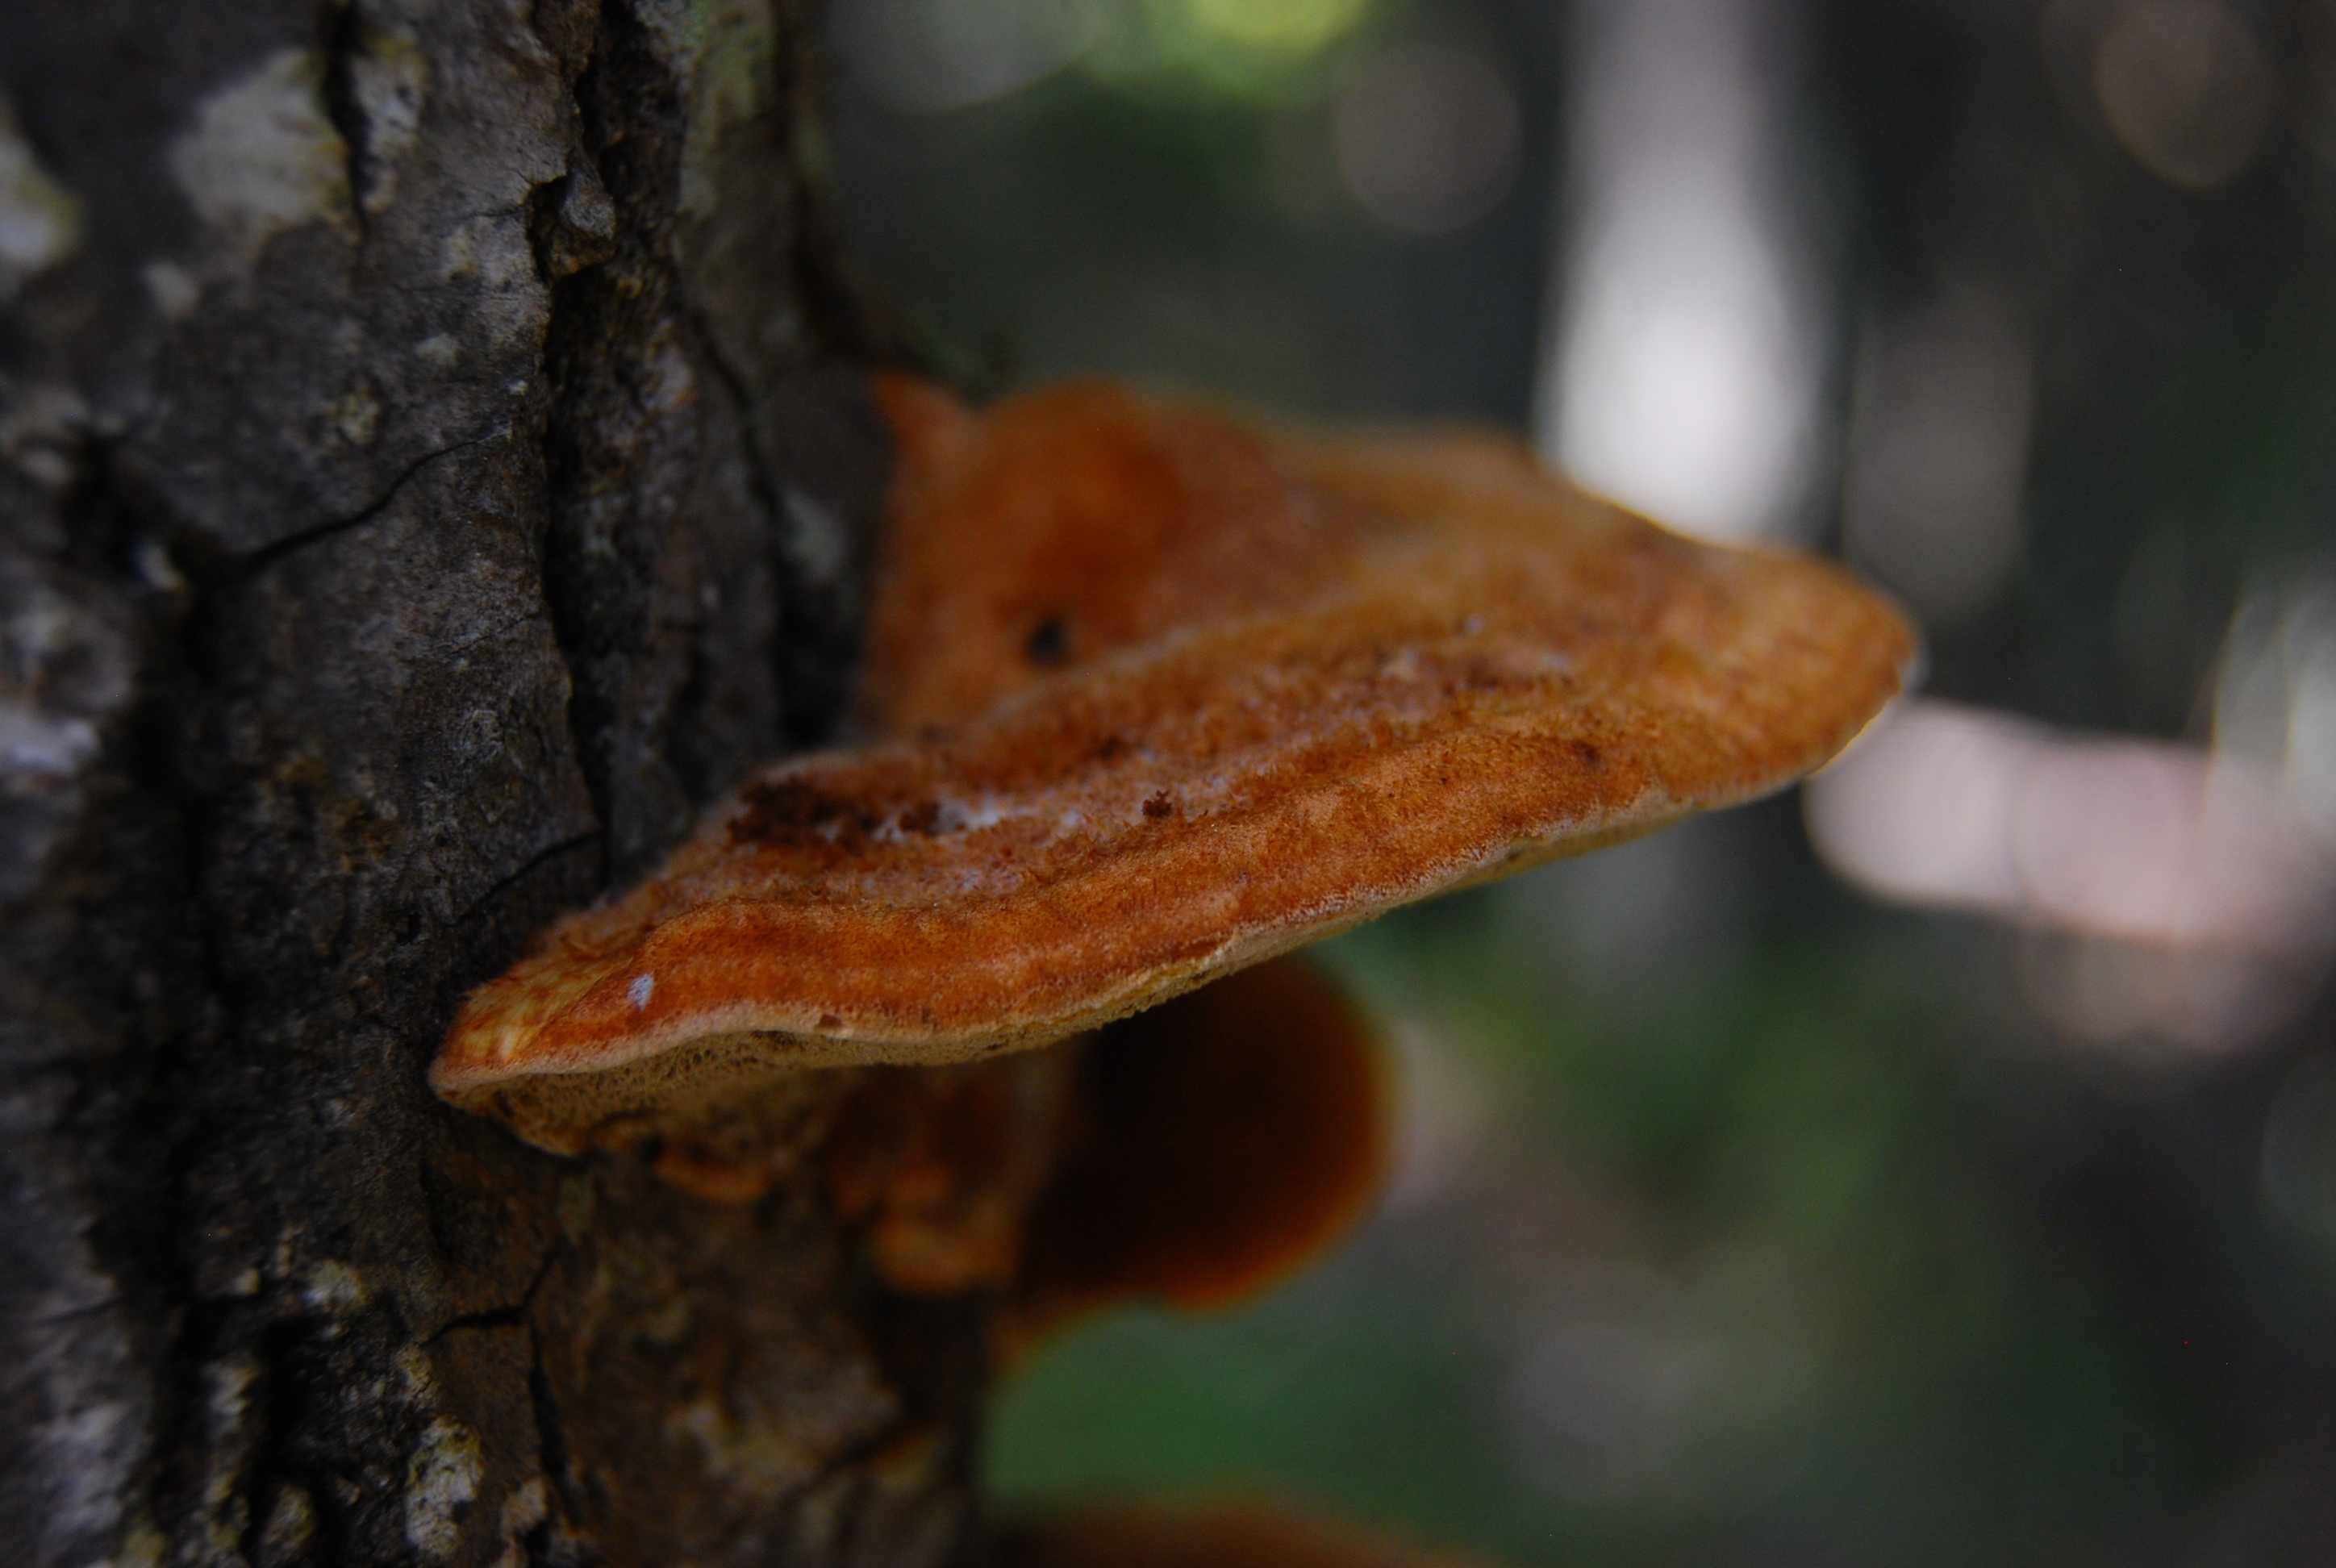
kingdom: Fungi
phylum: Basidiomycota
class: Agaricomycetes
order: Hymenochaetales
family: Hymenochaetaceae
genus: Inocutis
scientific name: Inocutis rheades
